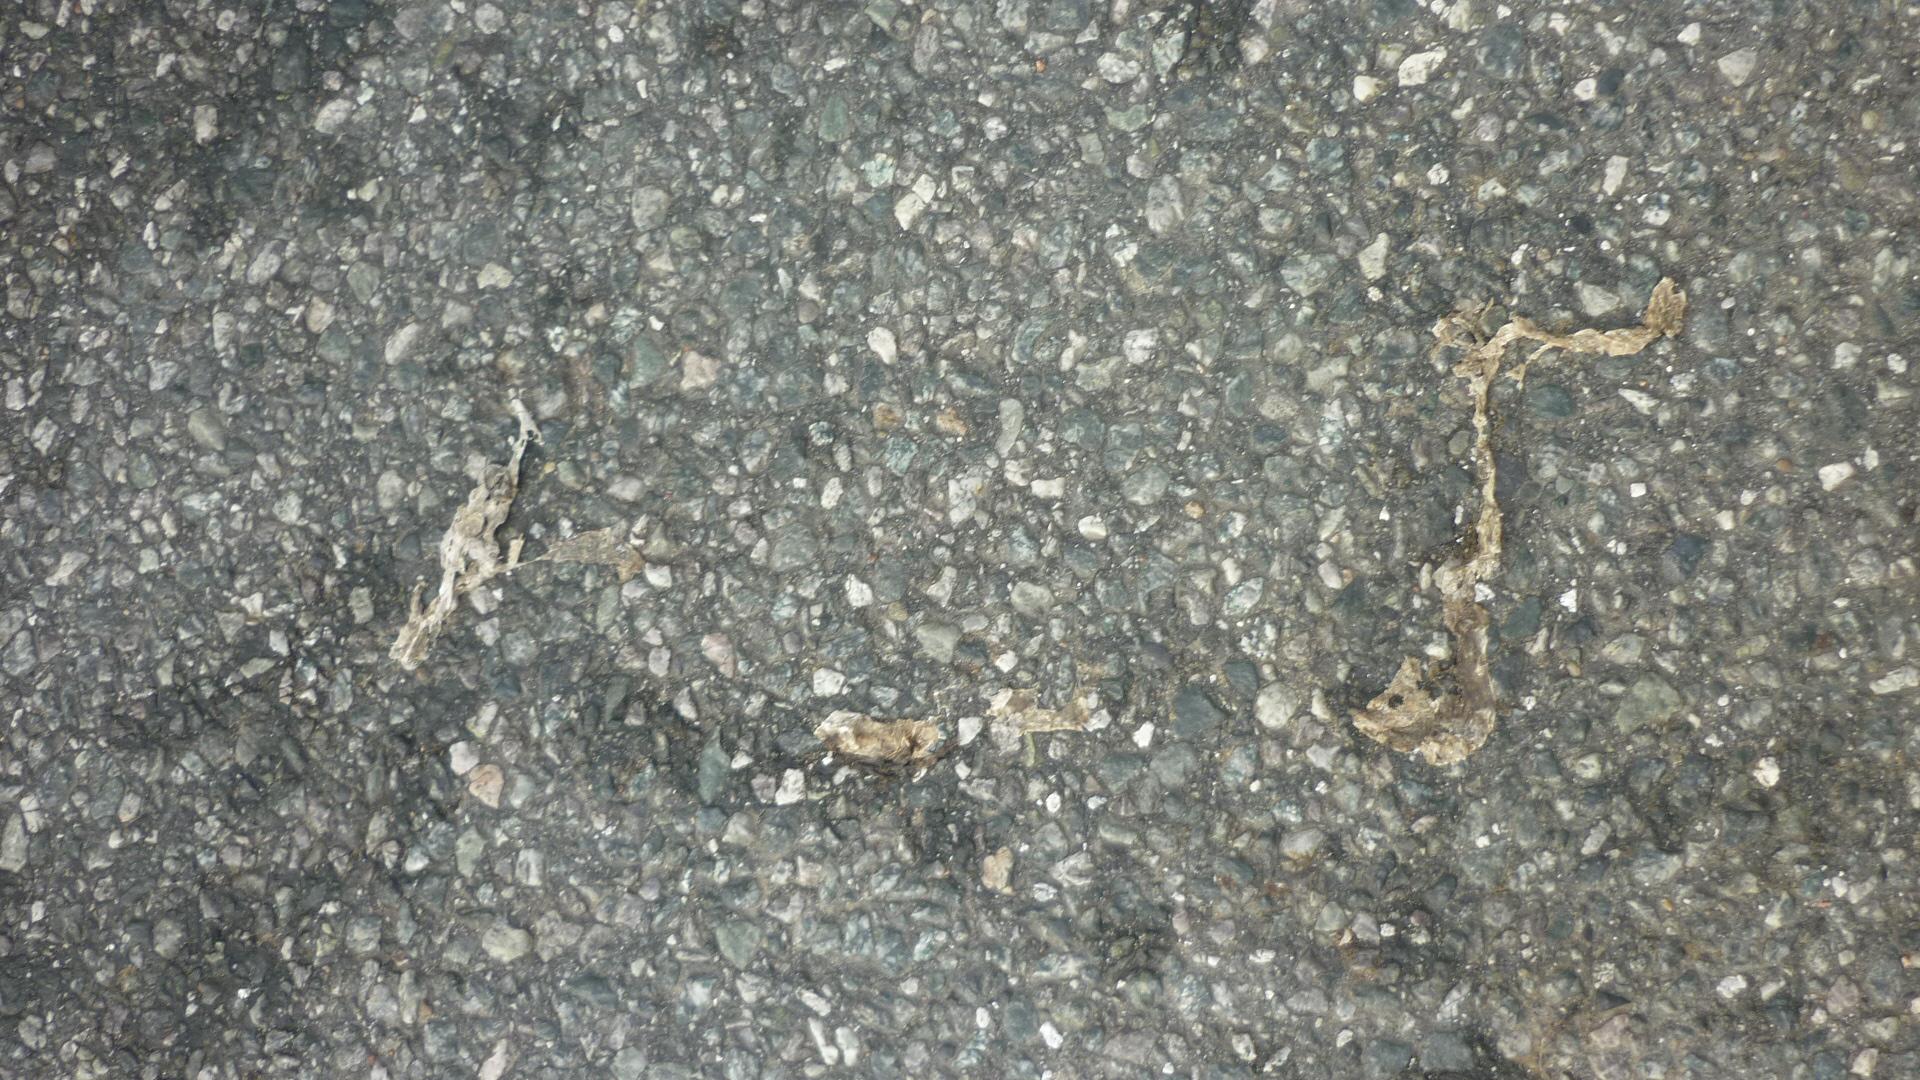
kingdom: Animalia
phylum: Chordata
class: Amphibia
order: Anura
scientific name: Anura
